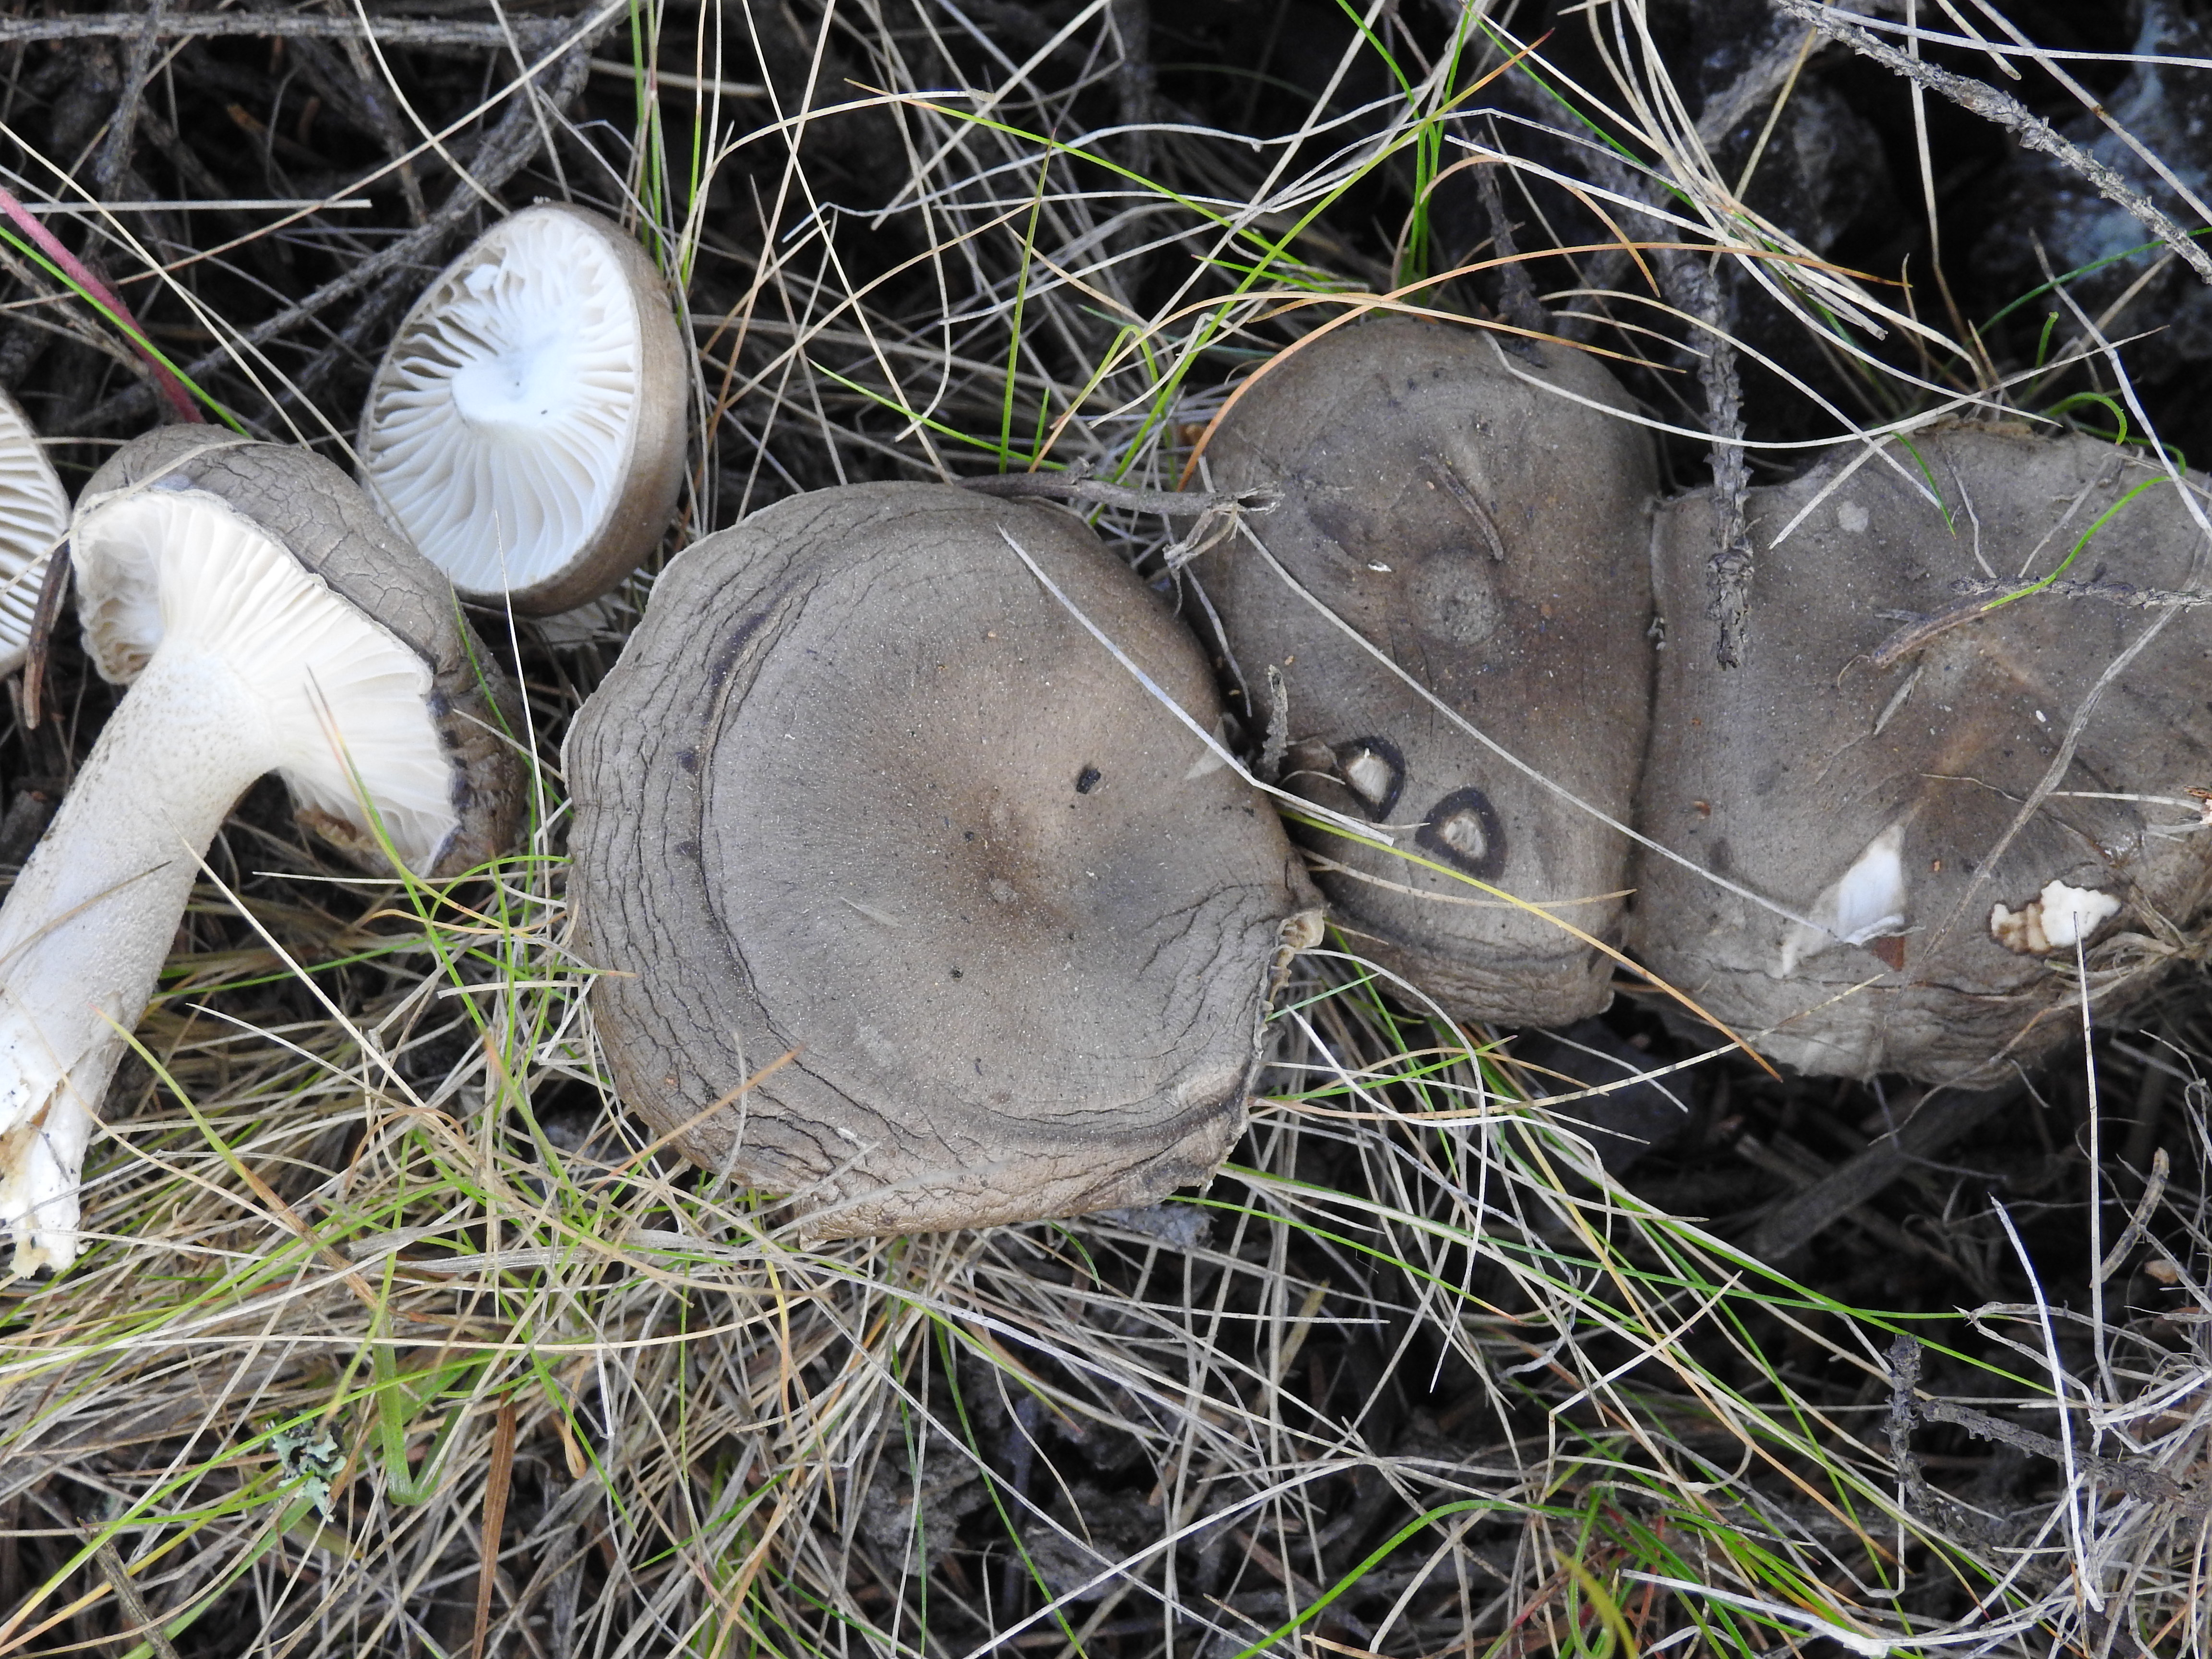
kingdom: Fungi
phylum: Basidiomycota
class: Agaricomycetes
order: Agaricales
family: Hygrophoraceae
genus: Hygrophorus
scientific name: Hygrophorus agathosmus
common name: Almond woodwax
